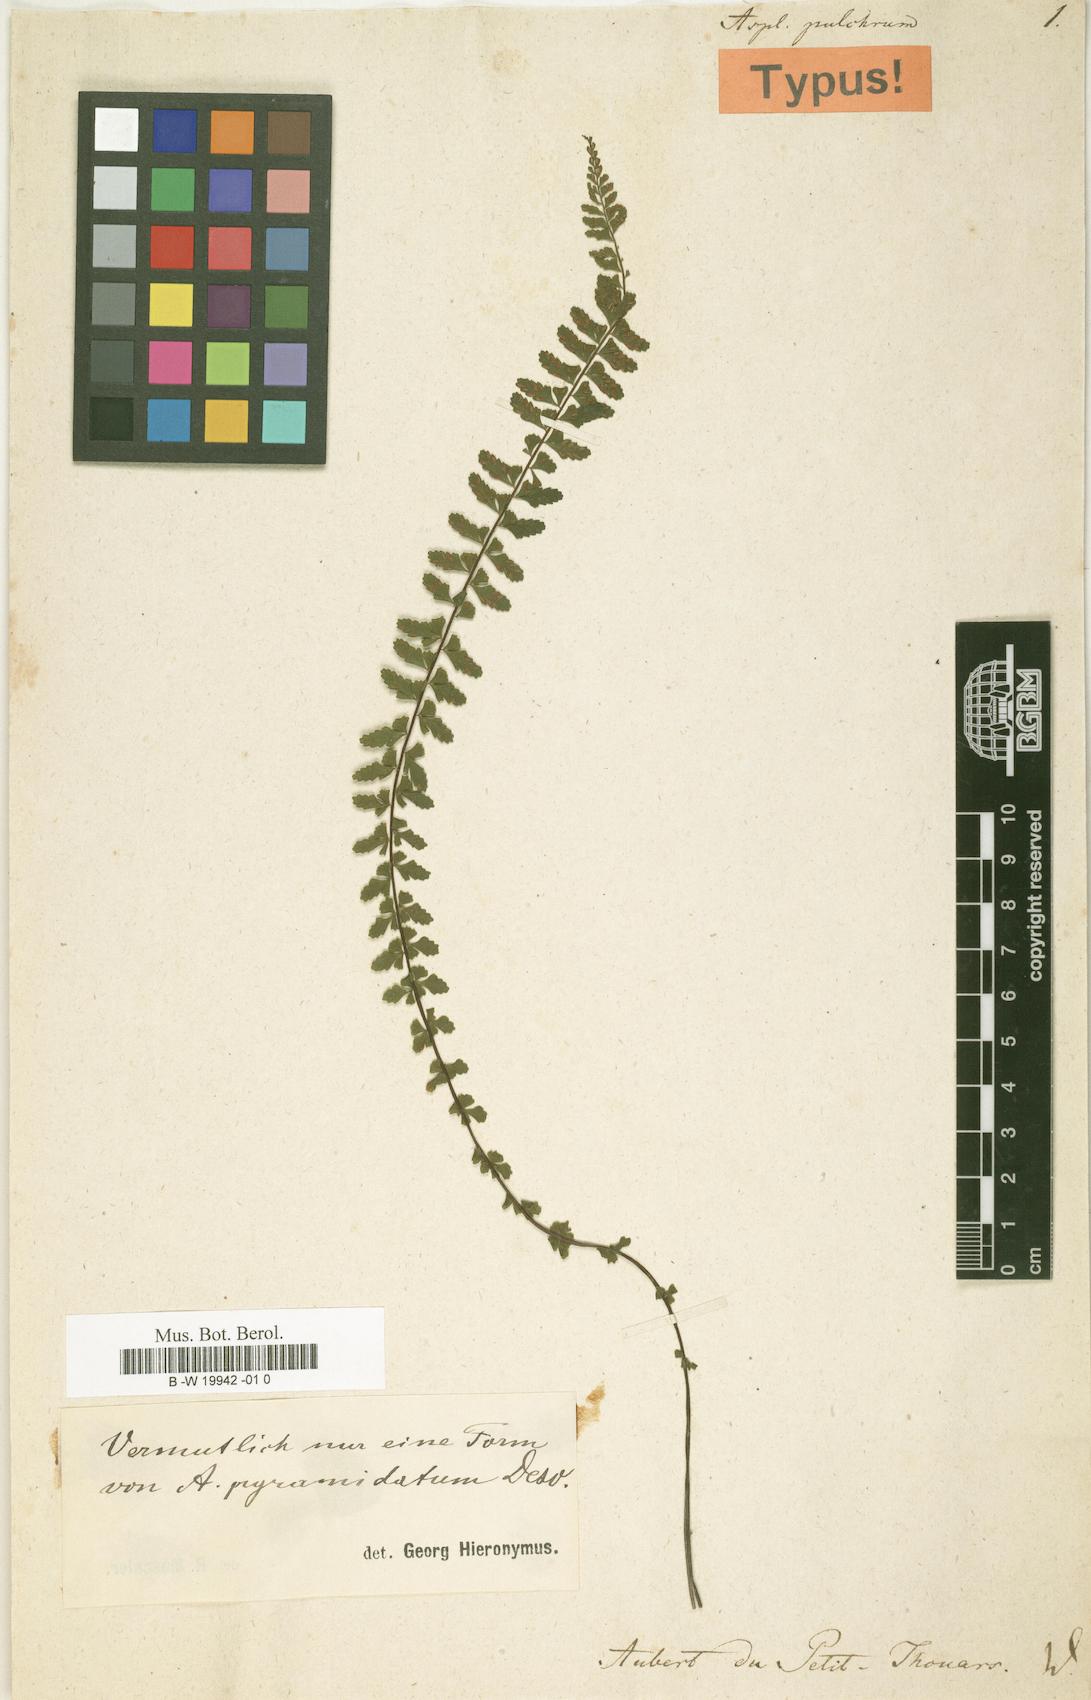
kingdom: Plantae
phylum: Tracheophyta
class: Polypodiopsida
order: Polypodiales
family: Aspleniaceae
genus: Asplenium
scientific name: Asplenium lunulatum
